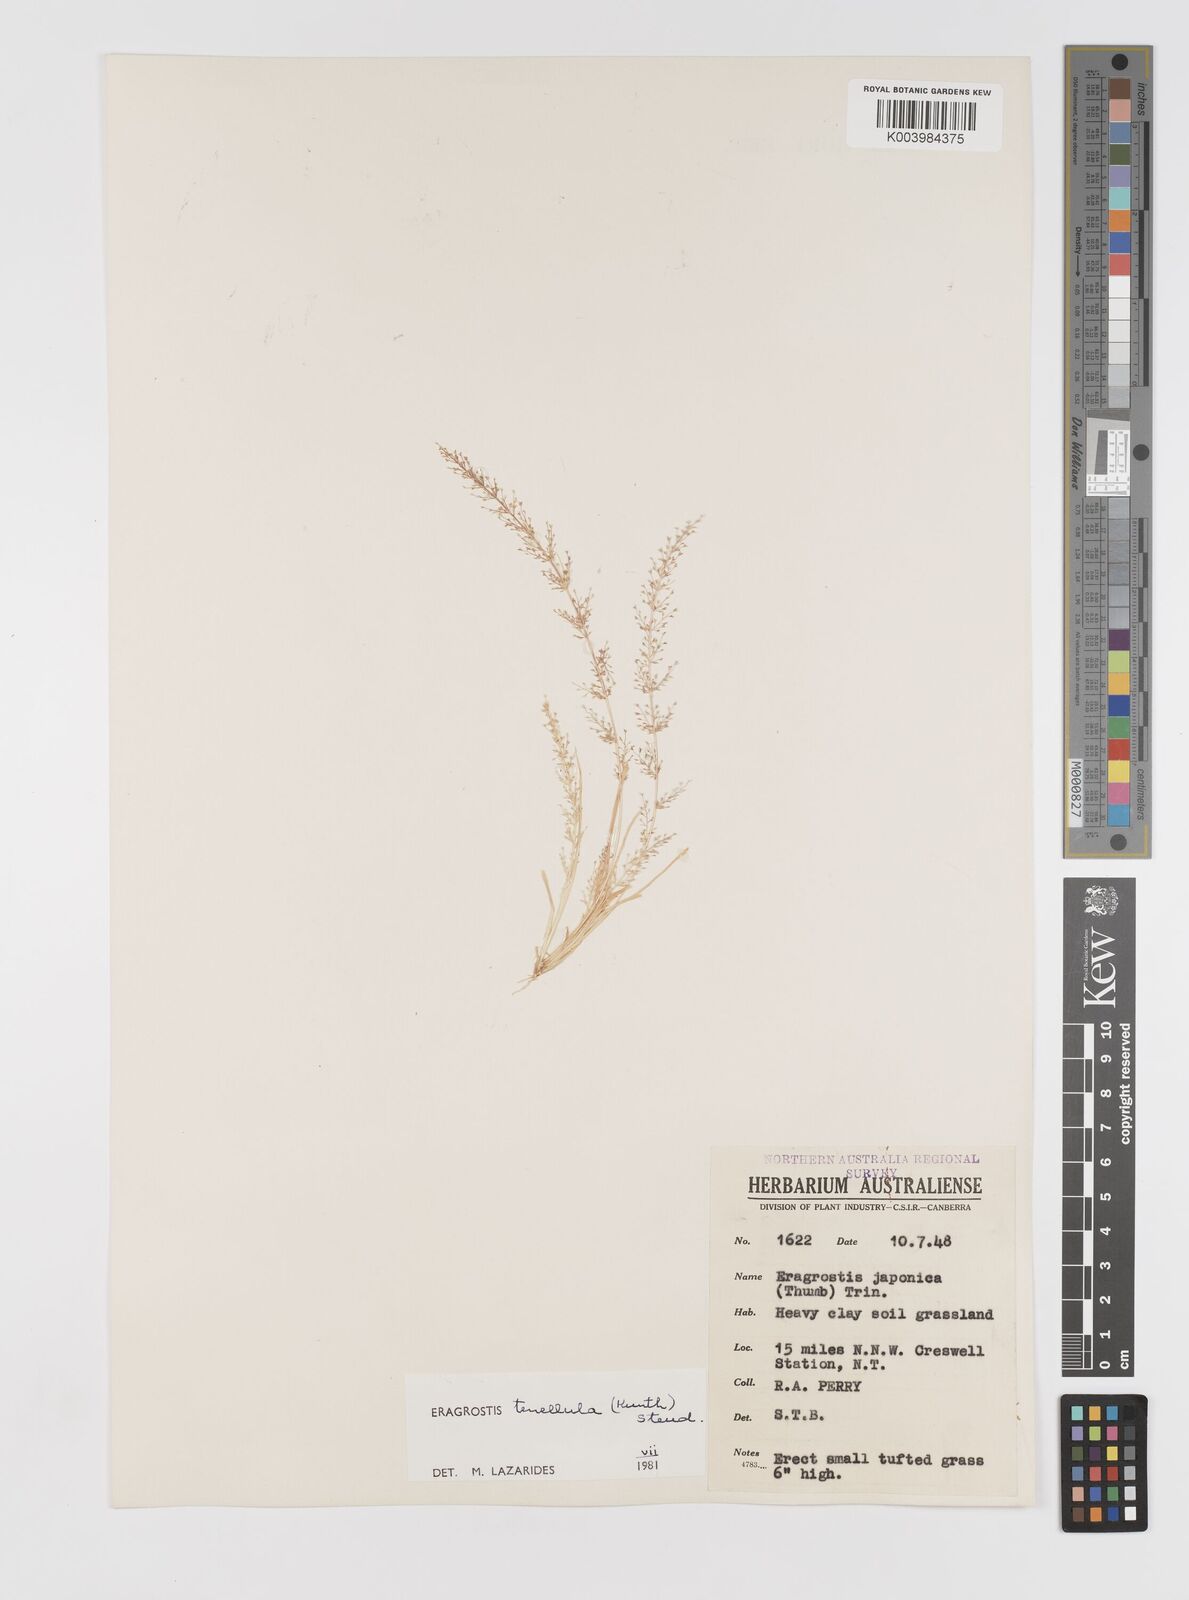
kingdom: Plantae
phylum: Tracheophyta
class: Liliopsida
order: Poales
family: Poaceae
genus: Eragrostis
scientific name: Eragrostis tenellula
